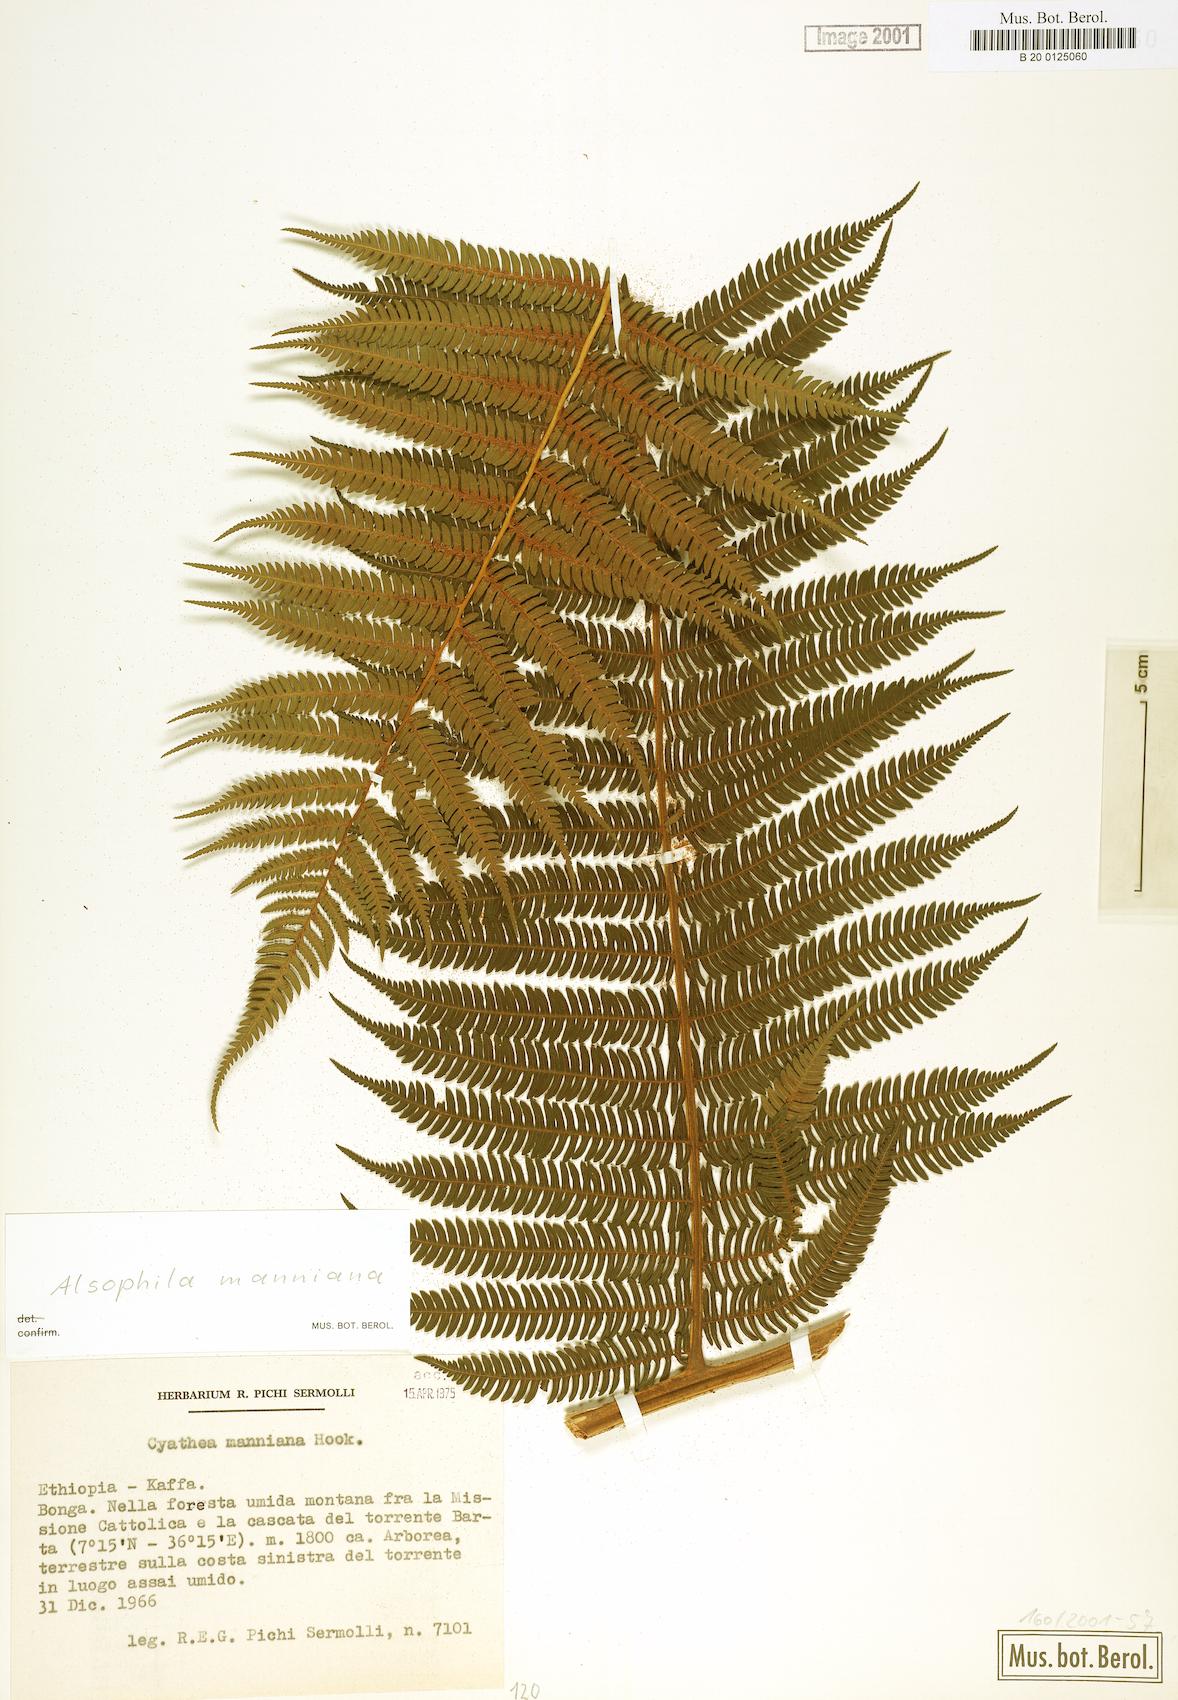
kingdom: Plantae
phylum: Tracheophyta
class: Polypodiopsida
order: Cyatheales
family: Cyatheaceae
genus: Alsophila
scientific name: Alsophila manniana
